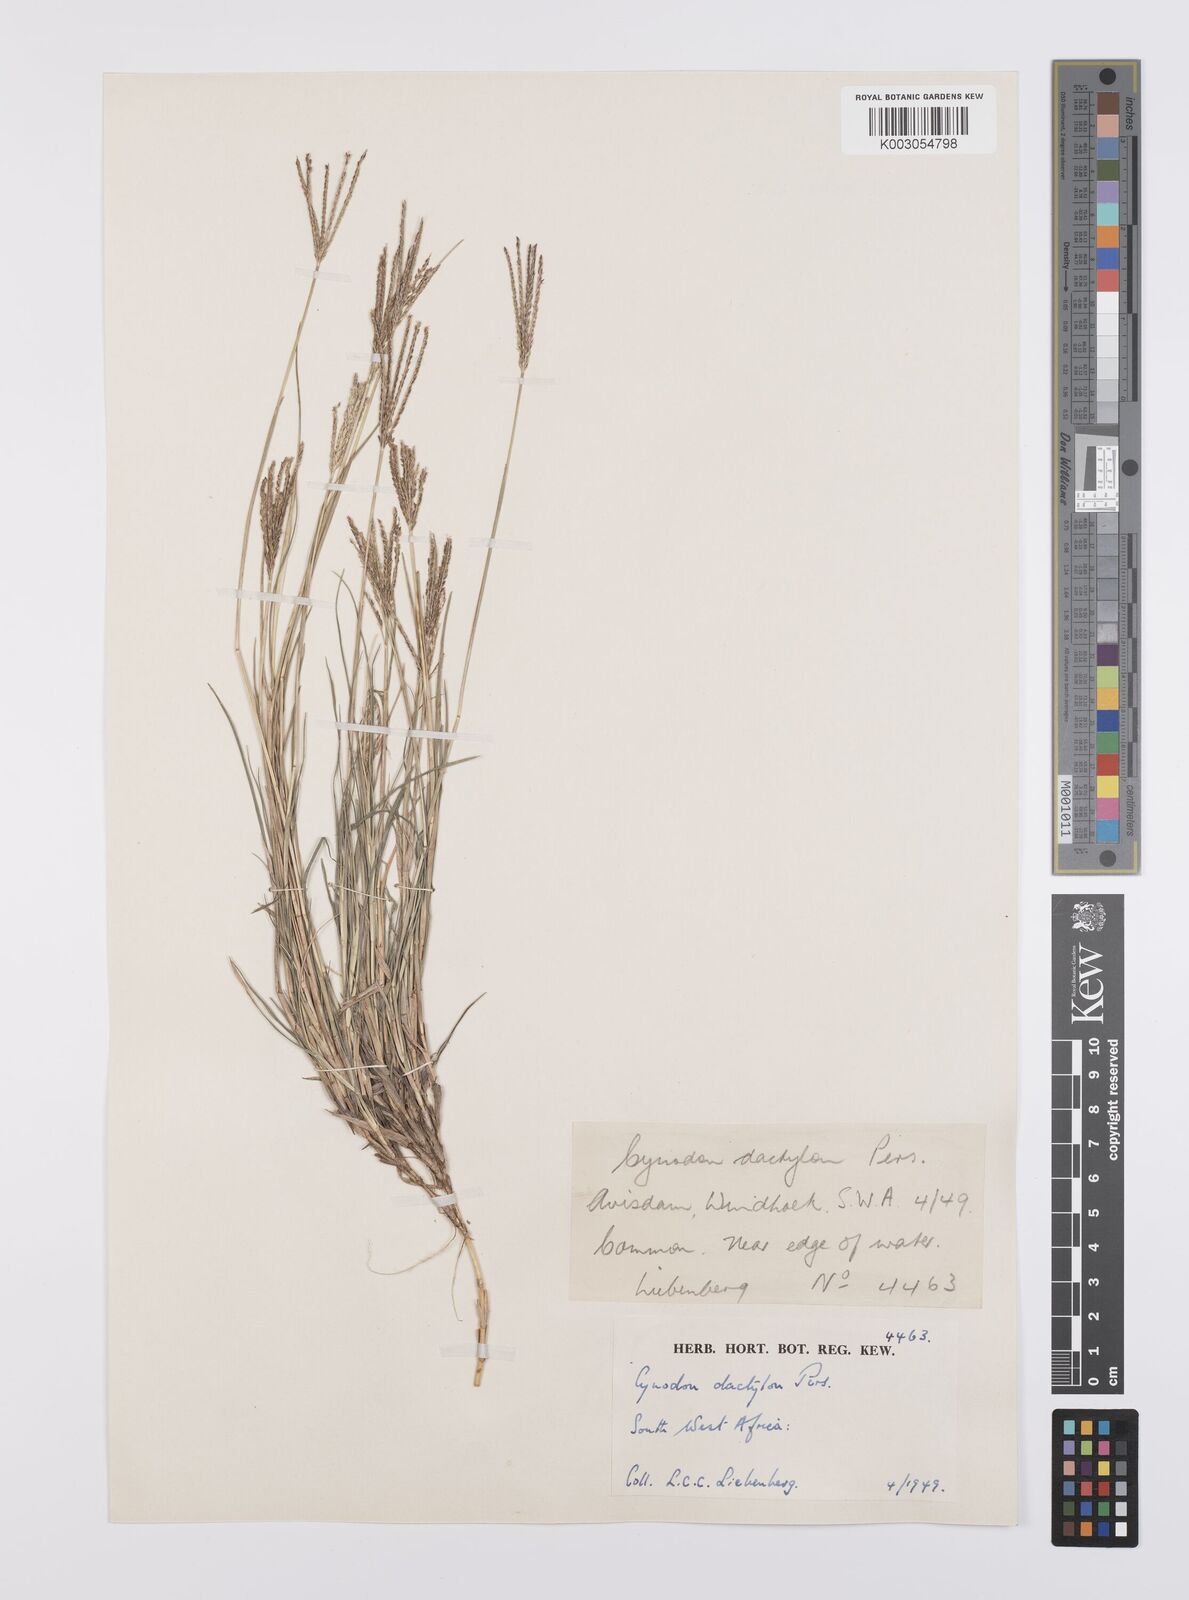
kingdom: Plantae
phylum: Tracheophyta
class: Liliopsida
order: Poales
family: Poaceae
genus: Cynodon
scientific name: Cynodon dactylon
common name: Bermuda grass
